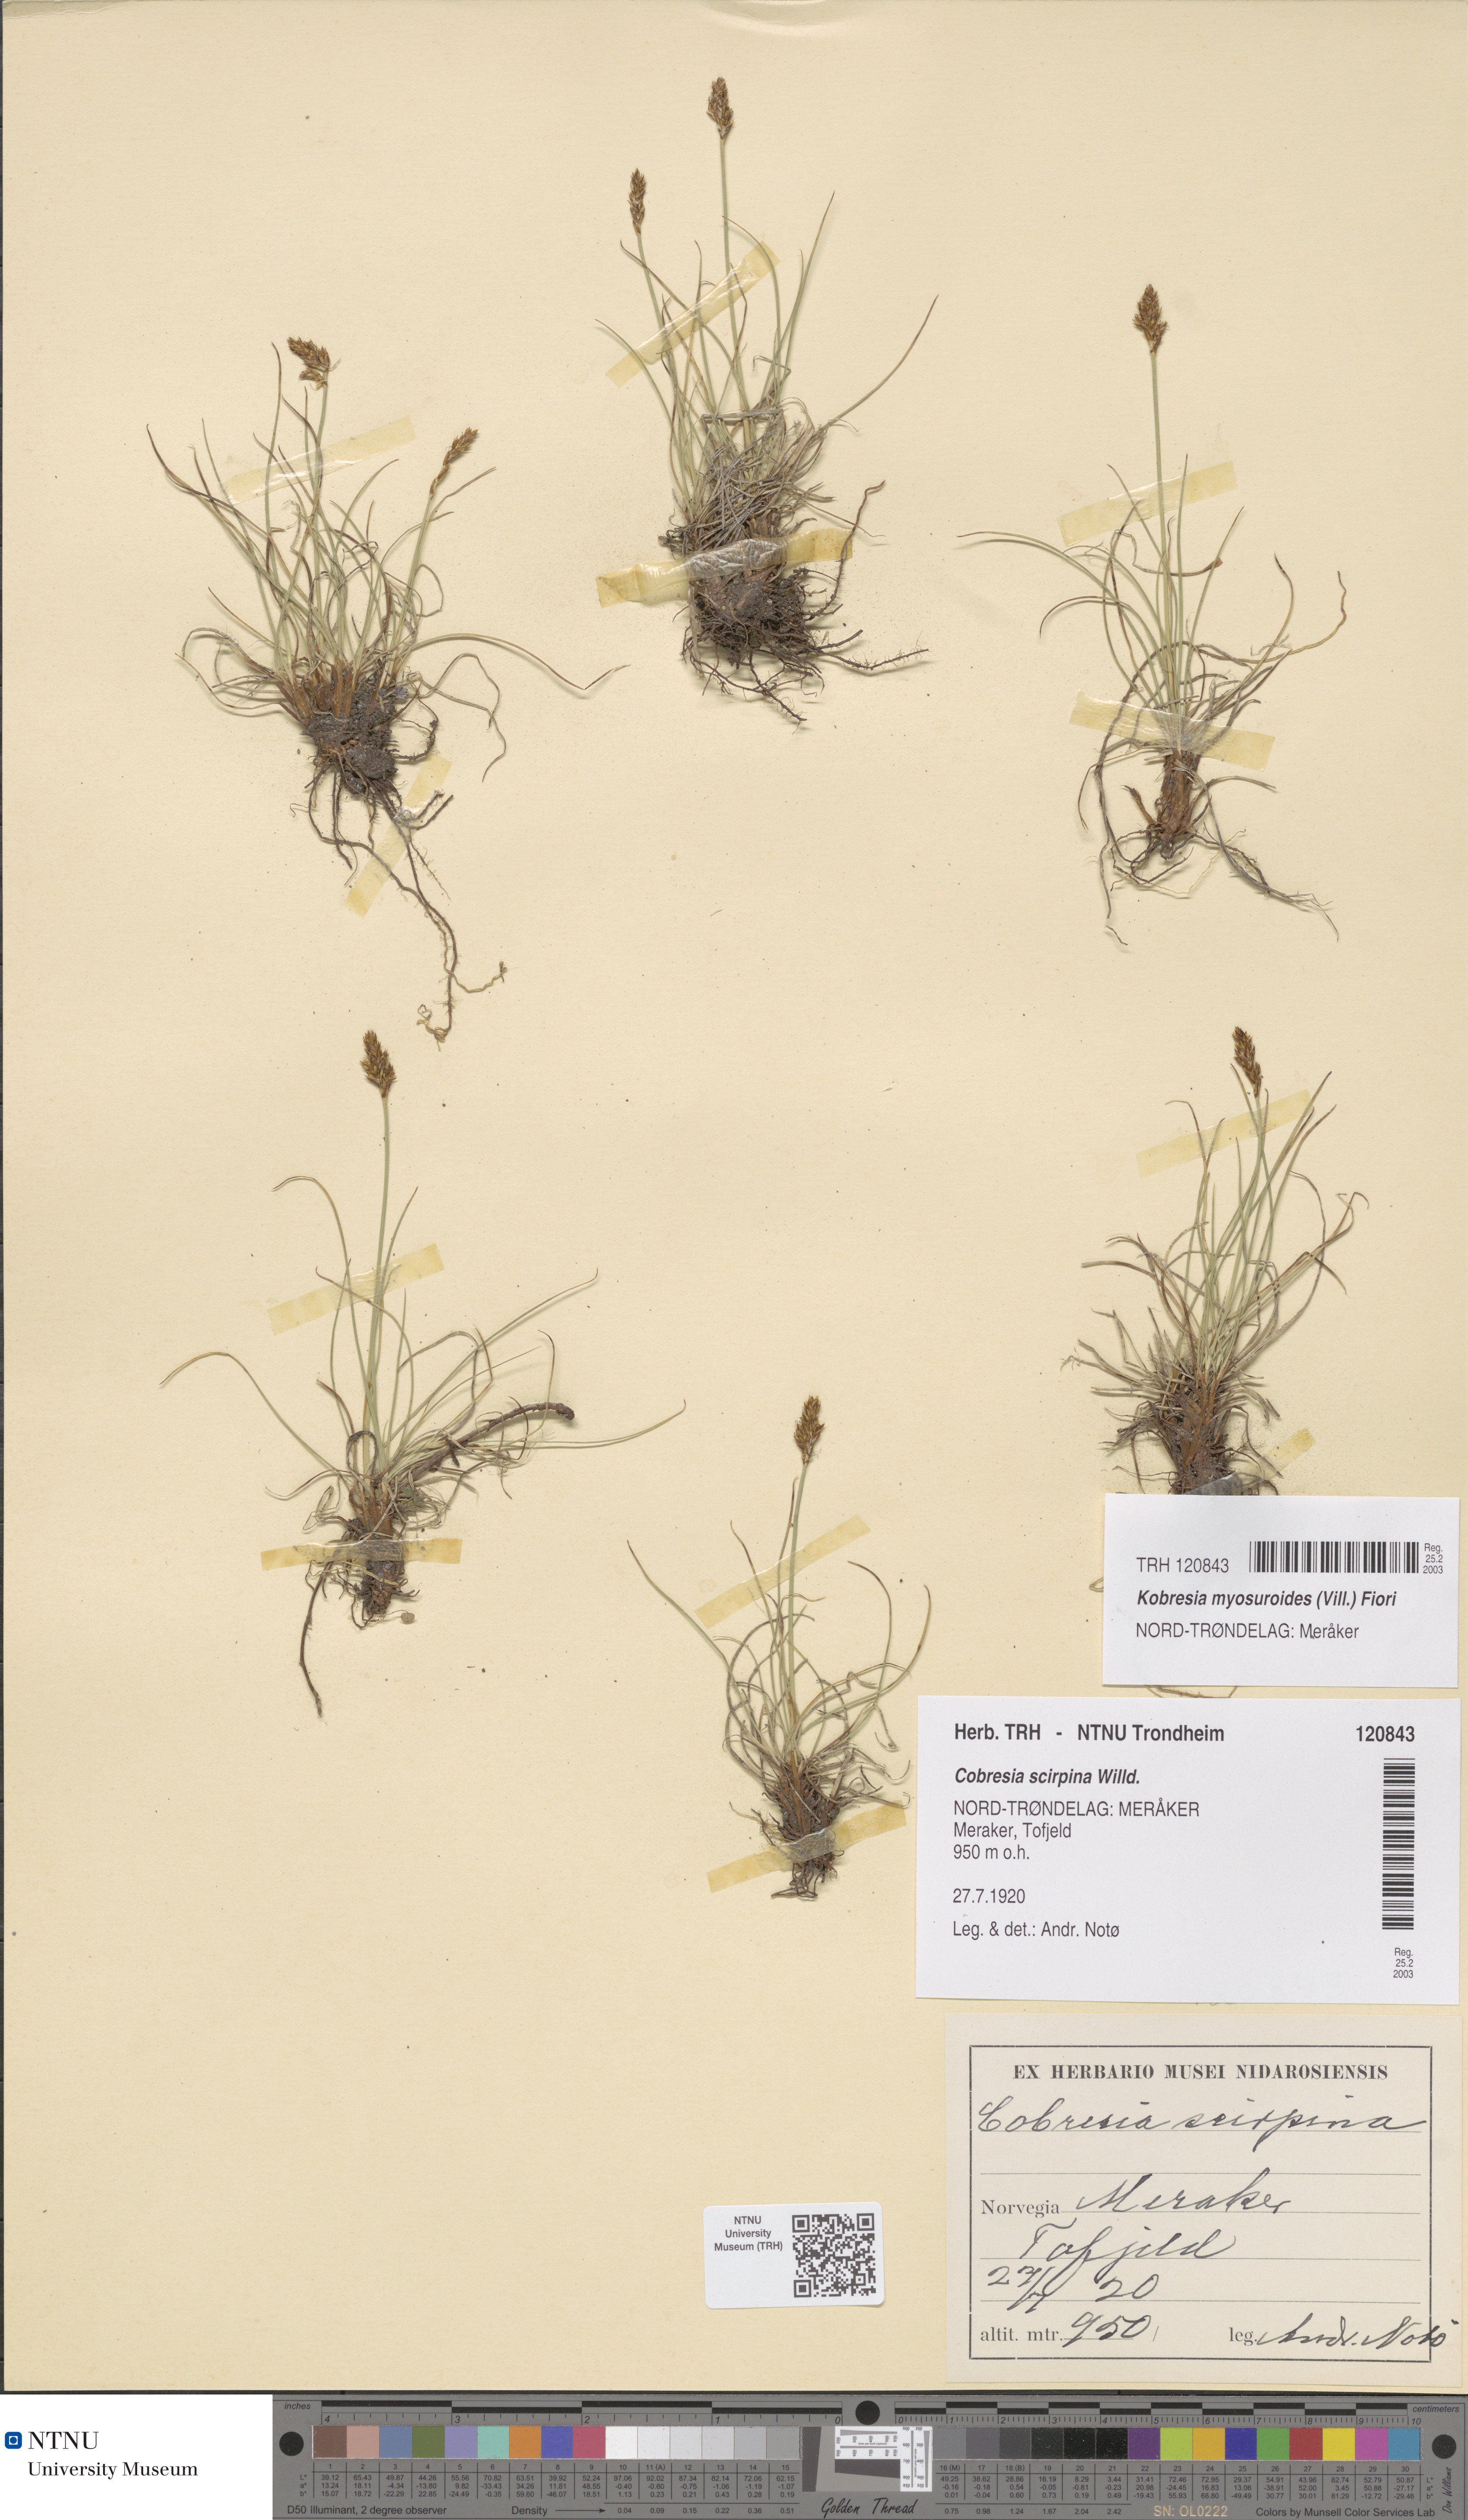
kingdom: Plantae
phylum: Tracheophyta
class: Liliopsida
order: Poales
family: Cyperaceae
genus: Carex
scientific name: Carex myosuroides
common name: Bellard's bog sedge
